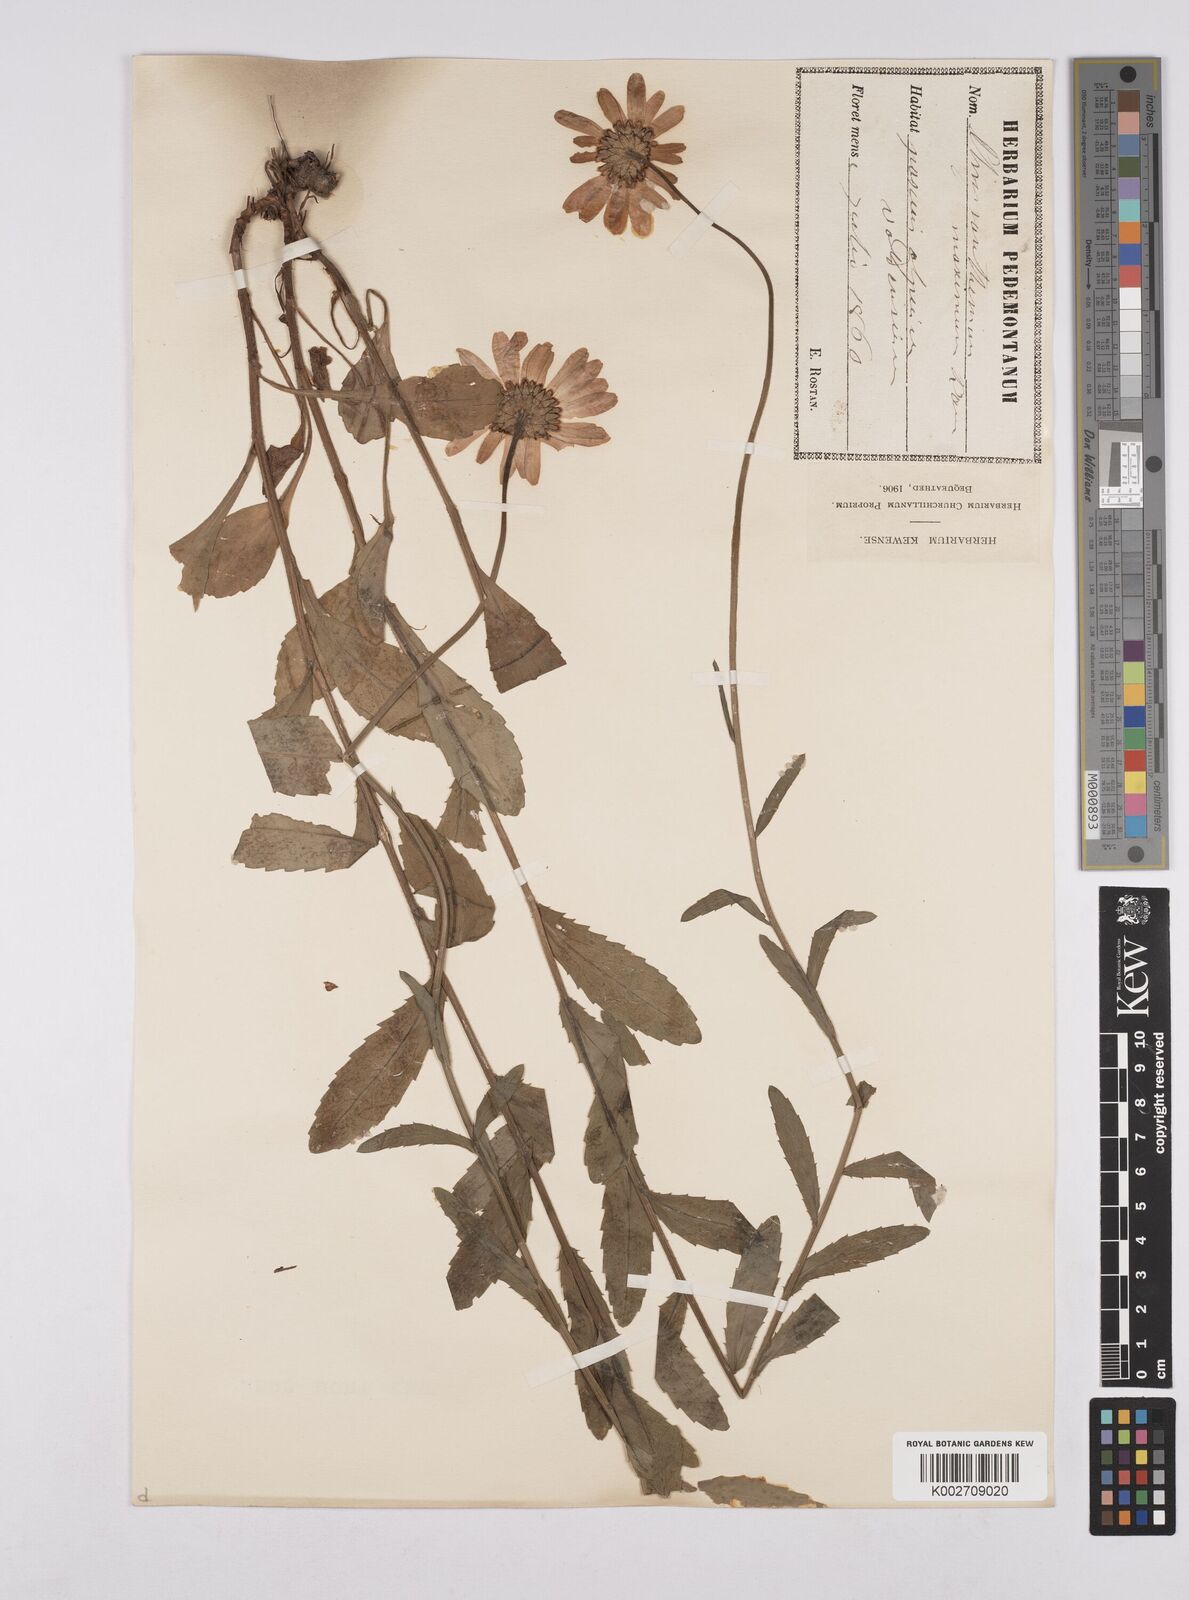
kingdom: Plantae
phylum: Tracheophyta
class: Magnoliopsida
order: Asterales
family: Asteraceae
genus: Leucanthemum
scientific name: Leucanthemum heterophyllum
